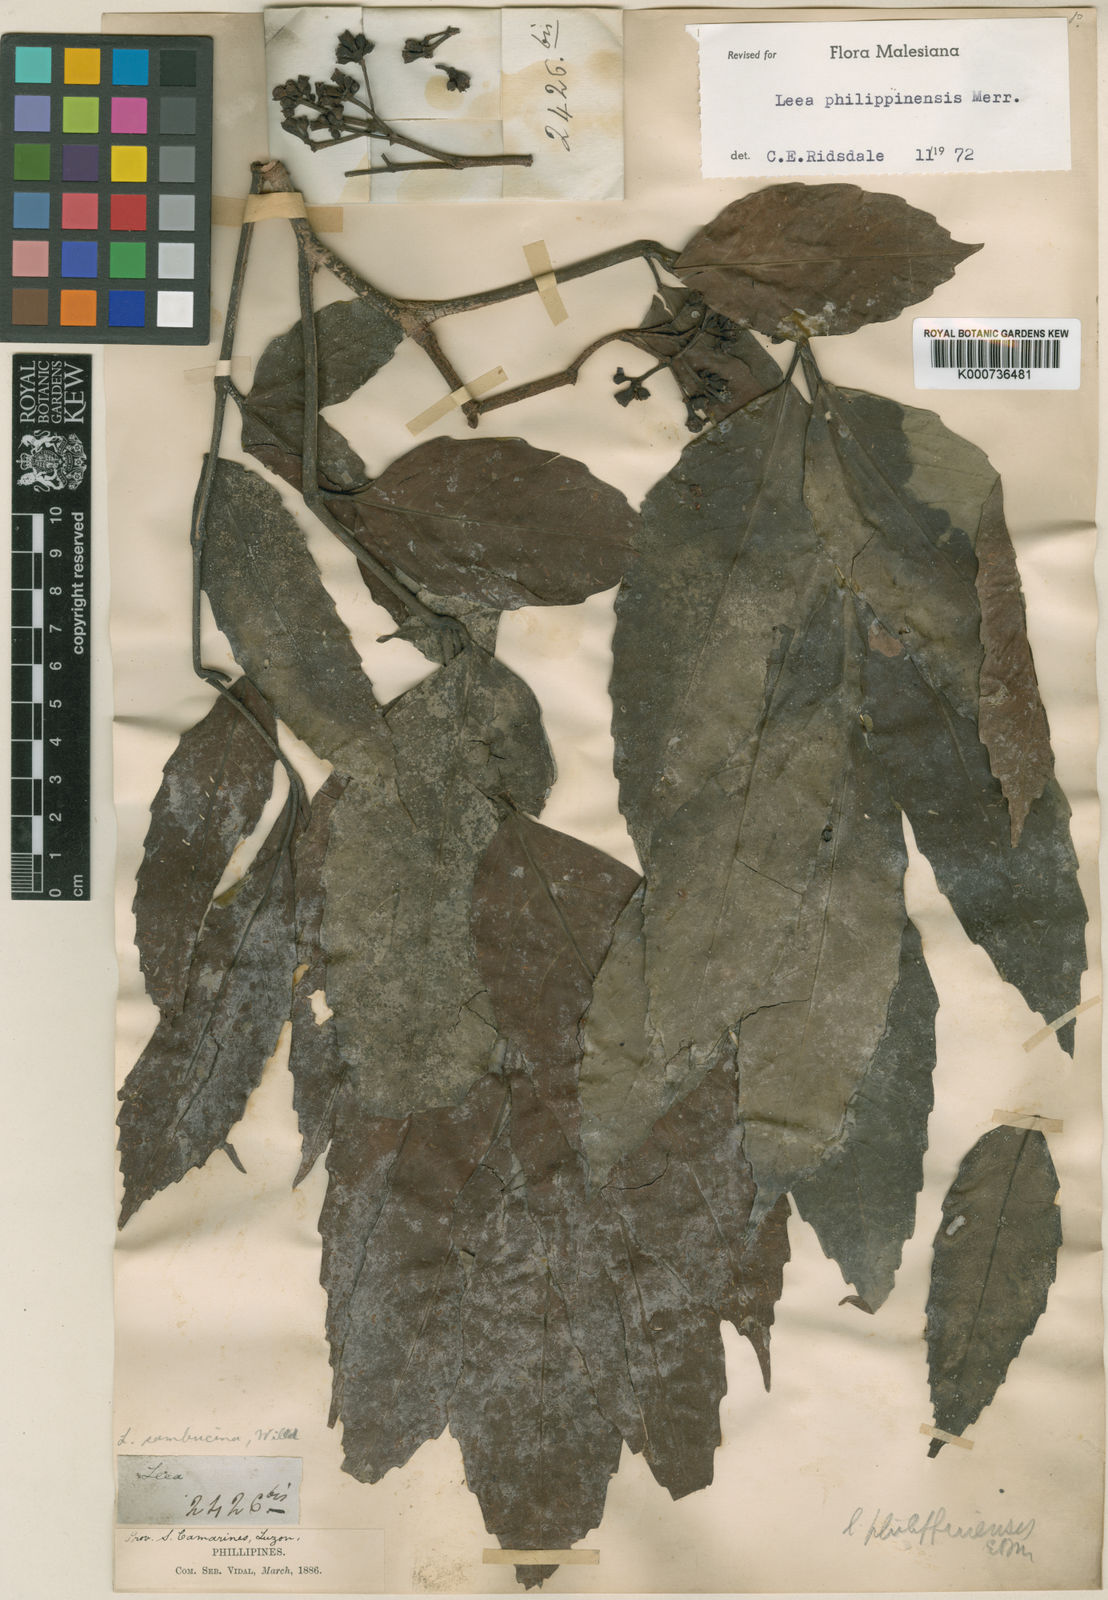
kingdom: Plantae
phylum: Tracheophyta
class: Magnoliopsida
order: Vitales
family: Vitaceae
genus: Leea
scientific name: Leea philippinensis
